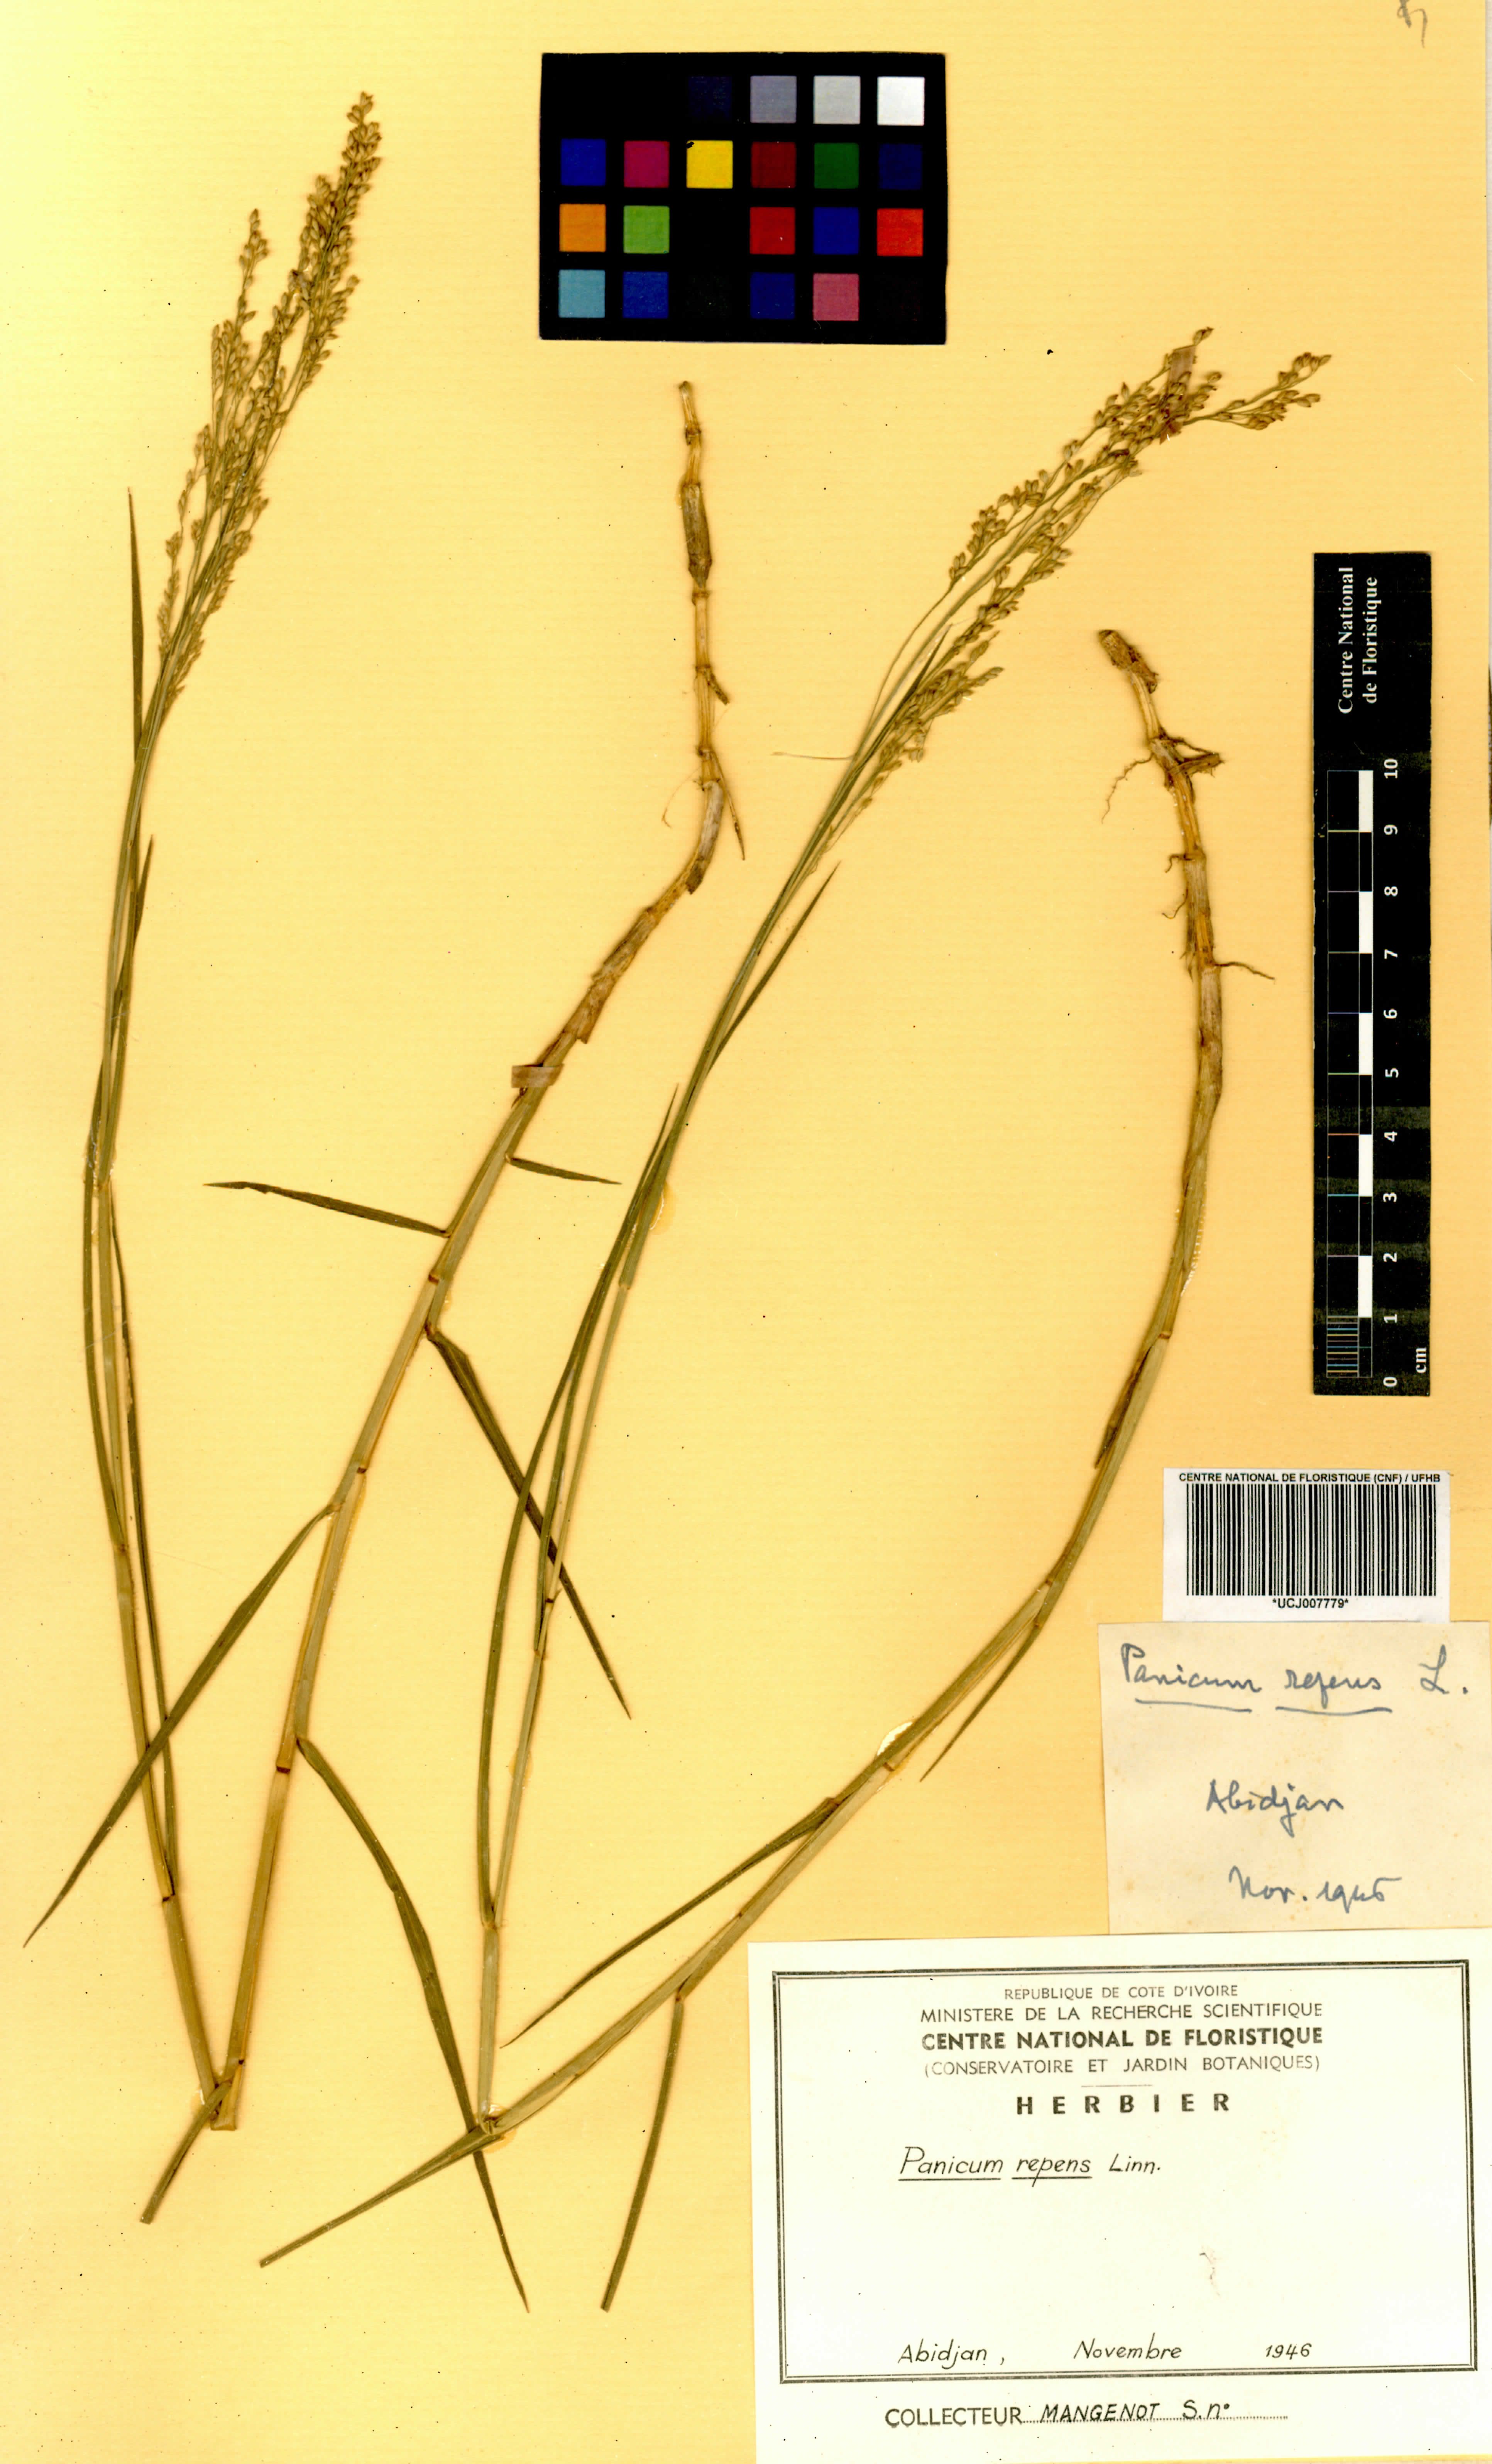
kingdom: Plantae
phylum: Tracheophyta
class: Liliopsida
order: Poales
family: Poaceae
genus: Panicum
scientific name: Panicum repens
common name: Torpedo grass
